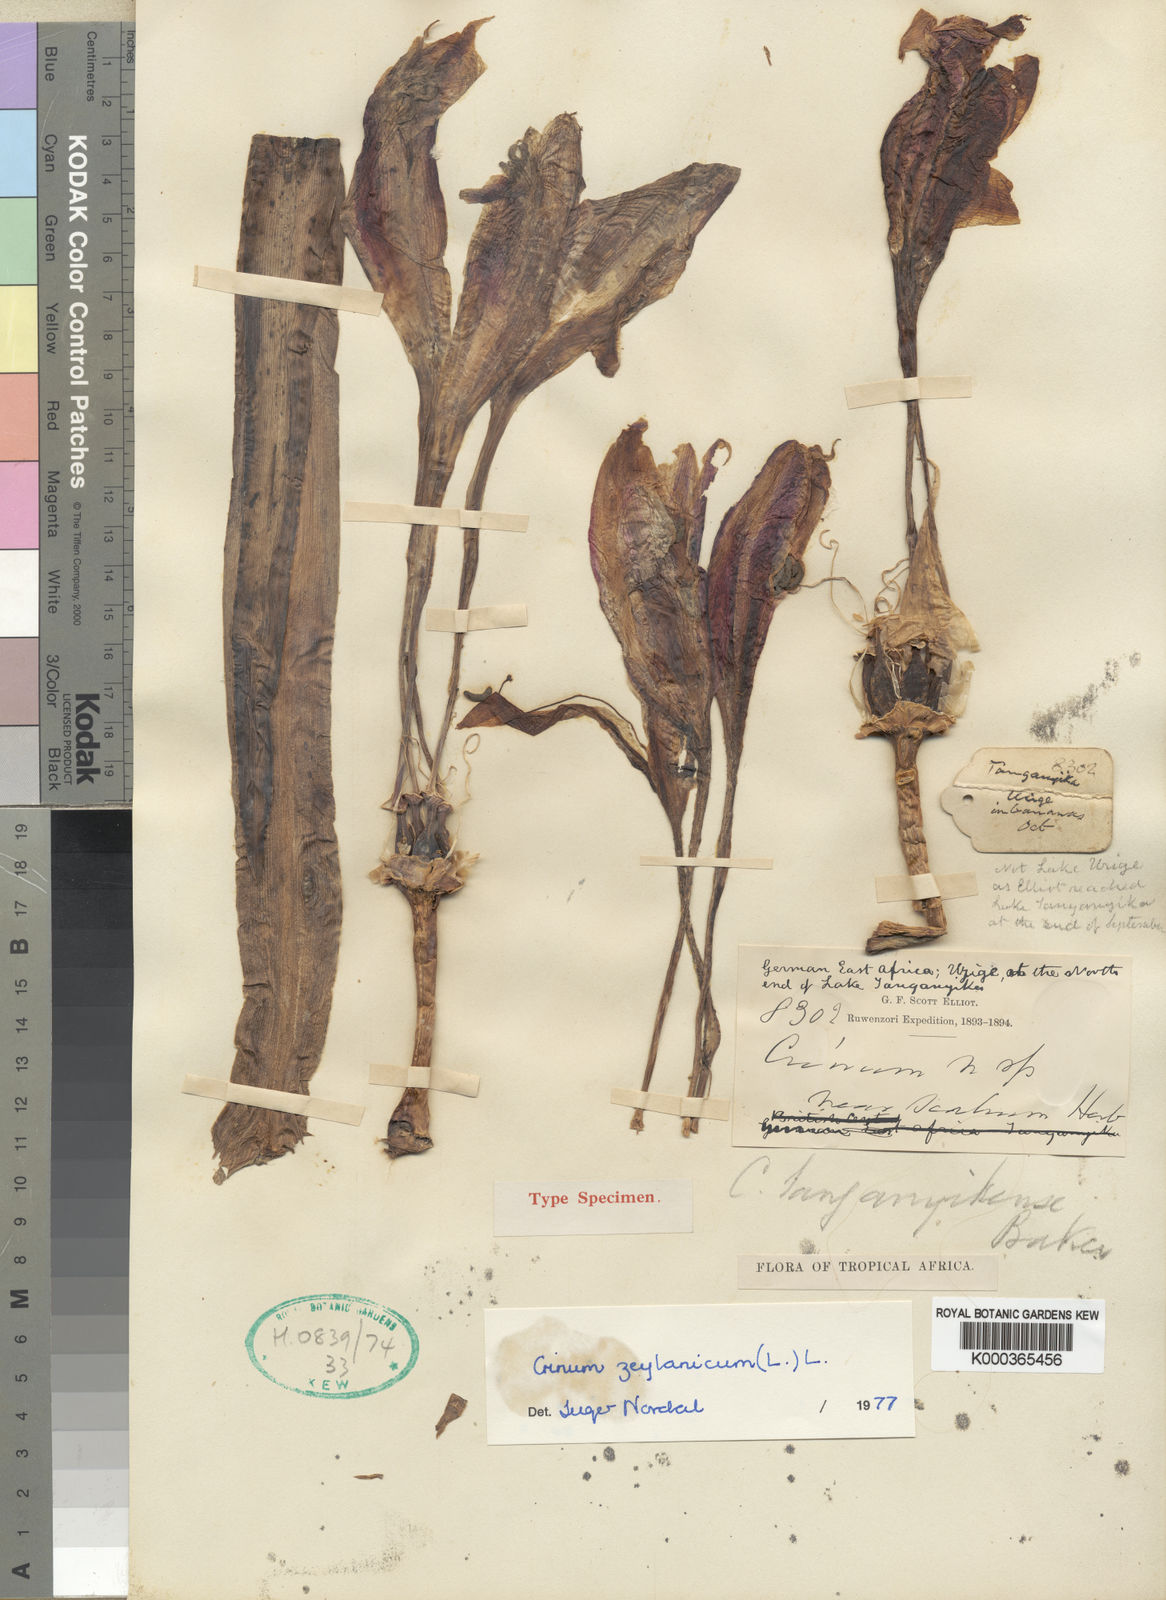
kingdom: Plantae
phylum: Tracheophyta
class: Liliopsida
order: Asparagales
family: Amaryllidaceae
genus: Crinum
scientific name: Crinum zeylanicum
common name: Ceylon swamplily
